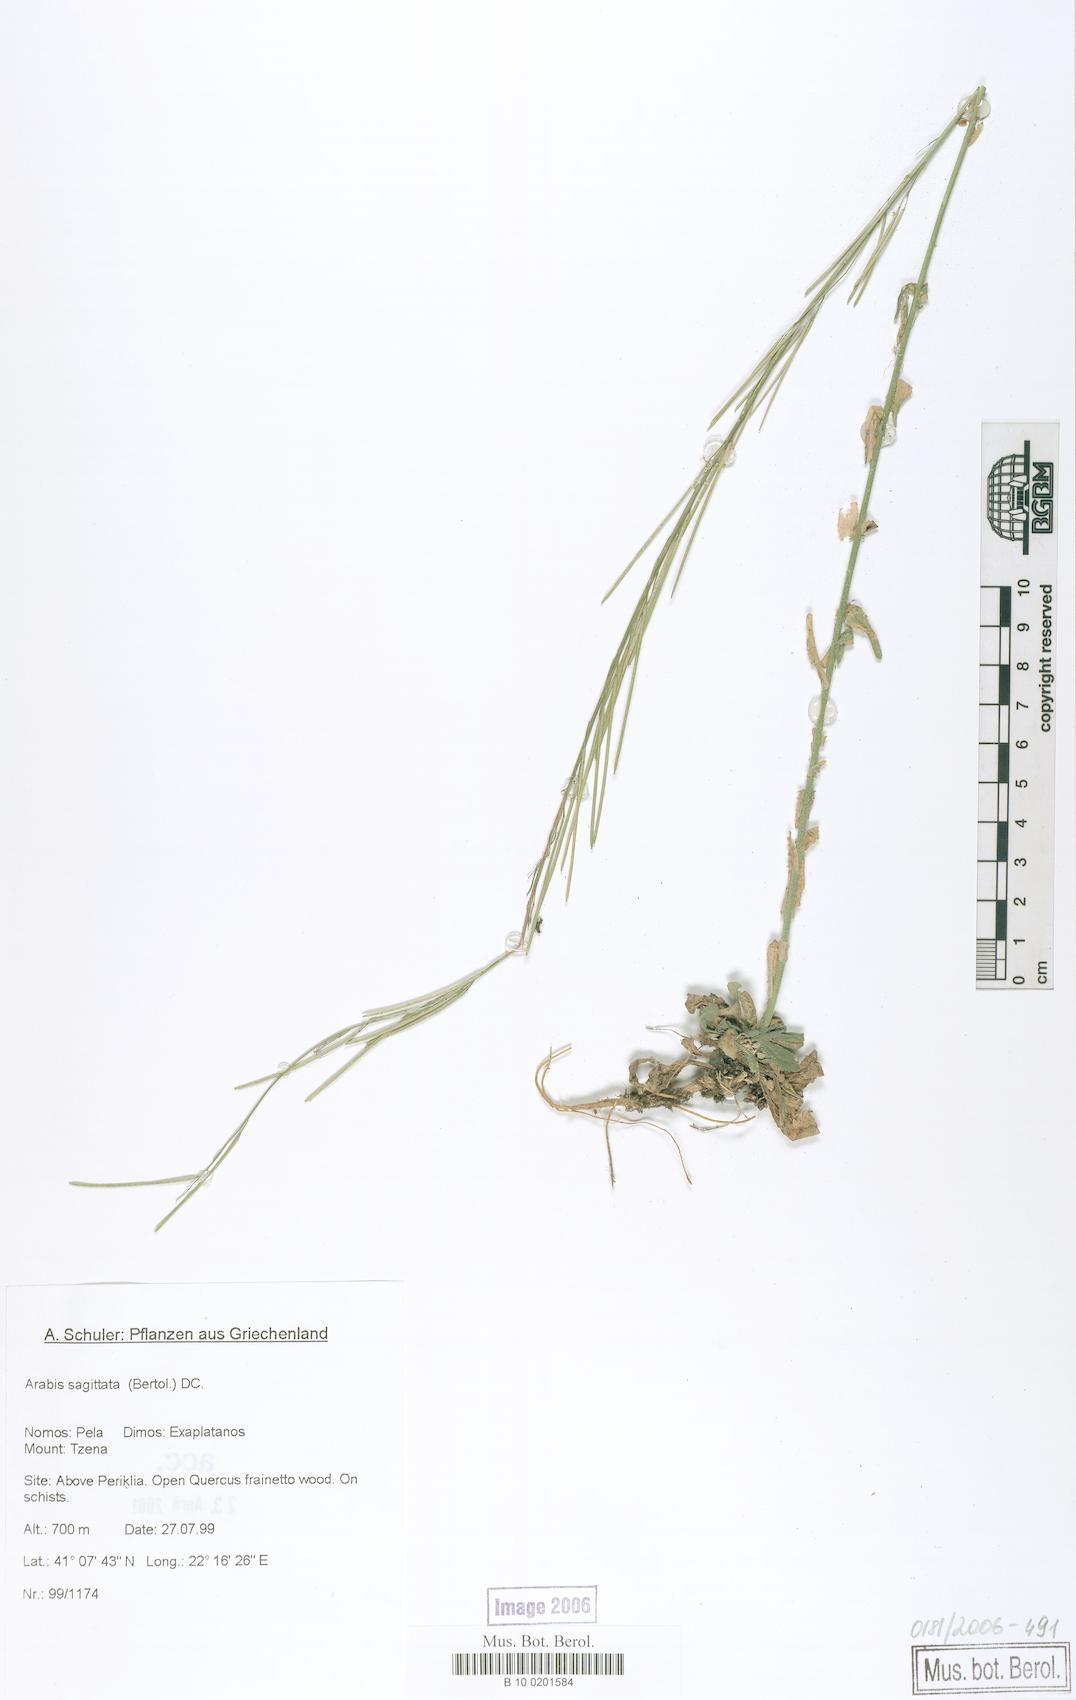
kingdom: Plantae
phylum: Tracheophyta
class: Magnoliopsida
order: Brassicales
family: Brassicaceae
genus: Arabis
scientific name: Arabis sagittata
